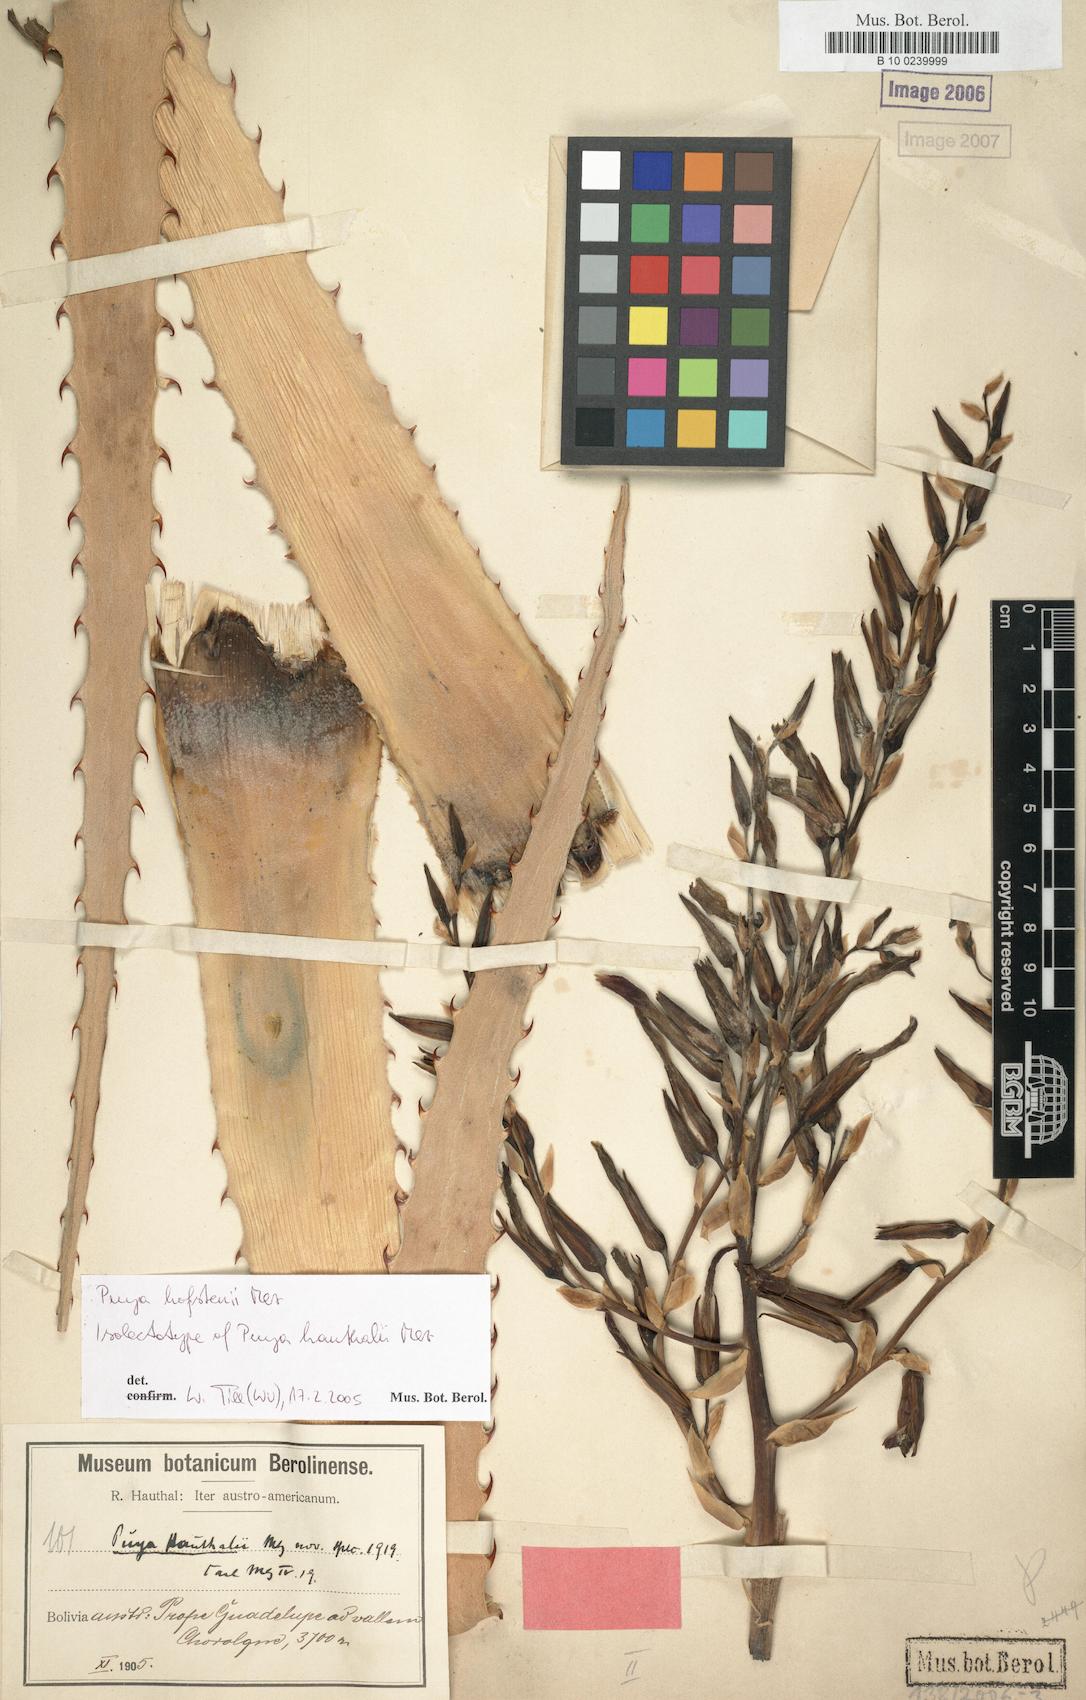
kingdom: Plantae
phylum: Tracheophyta
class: Liliopsida
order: Poales
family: Bromeliaceae
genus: Puya
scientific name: Puya hofstenii
